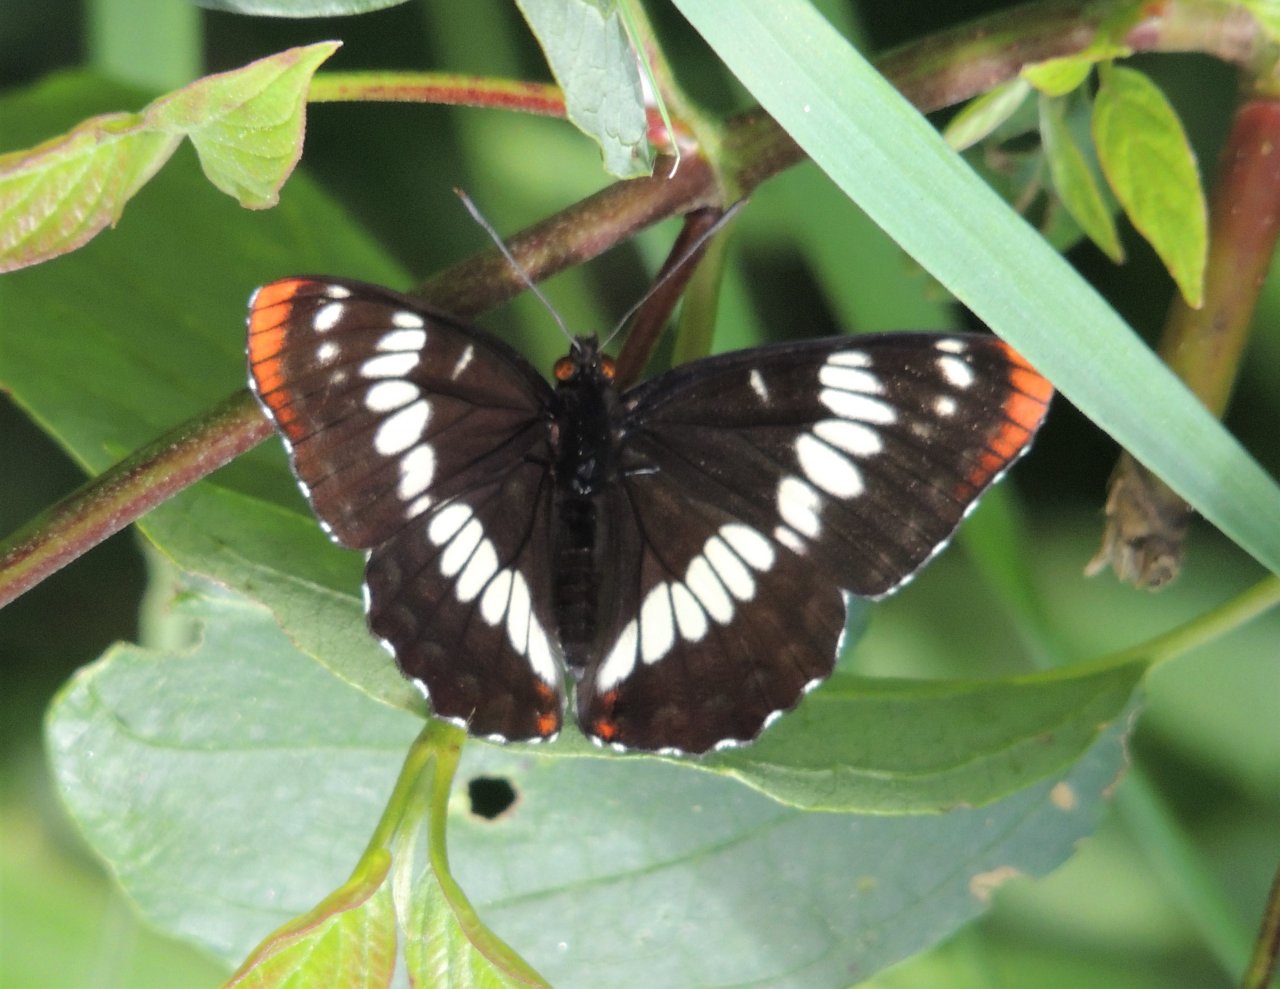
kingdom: Animalia
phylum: Arthropoda
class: Insecta
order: Lepidoptera
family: Nymphalidae
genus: Limenitis
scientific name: Limenitis lorquini
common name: Lorquin's Admiral
